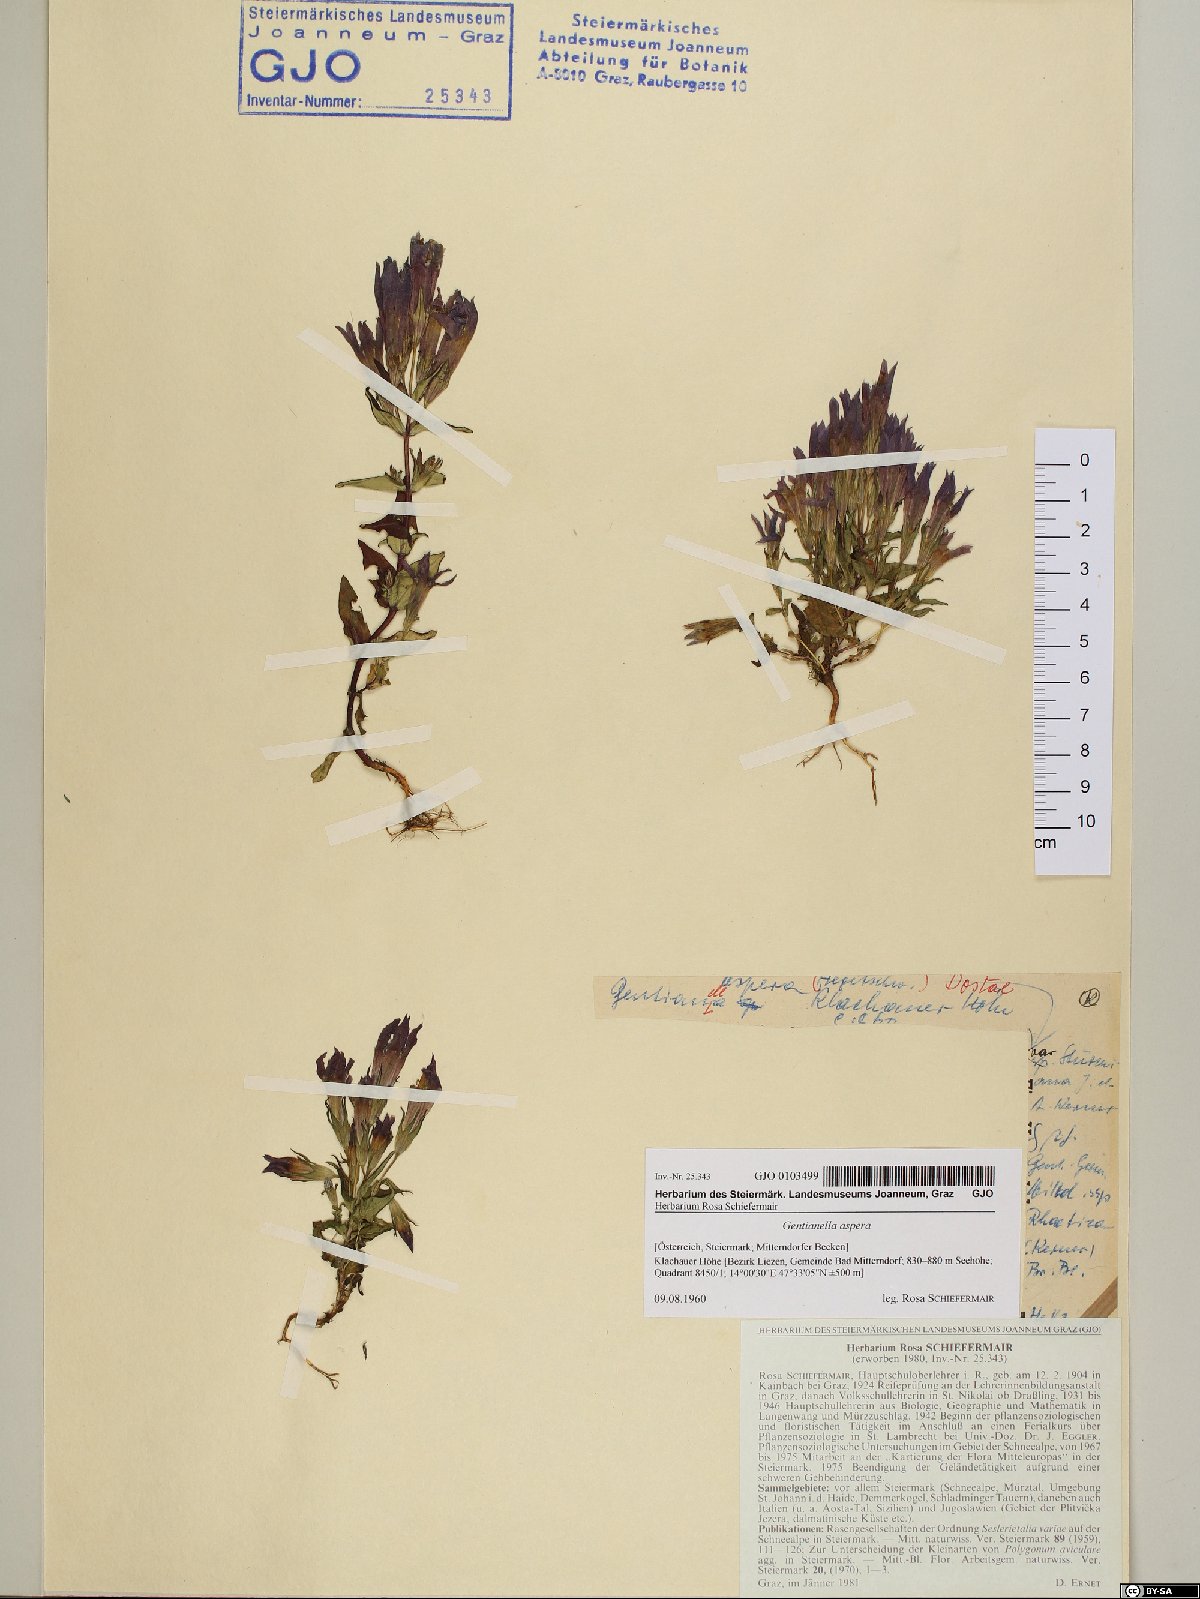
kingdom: Plantae
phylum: Tracheophyta
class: Magnoliopsida
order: Gentianales
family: Gentianaceae
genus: Gentianella
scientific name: Gentianella obtusifolia
